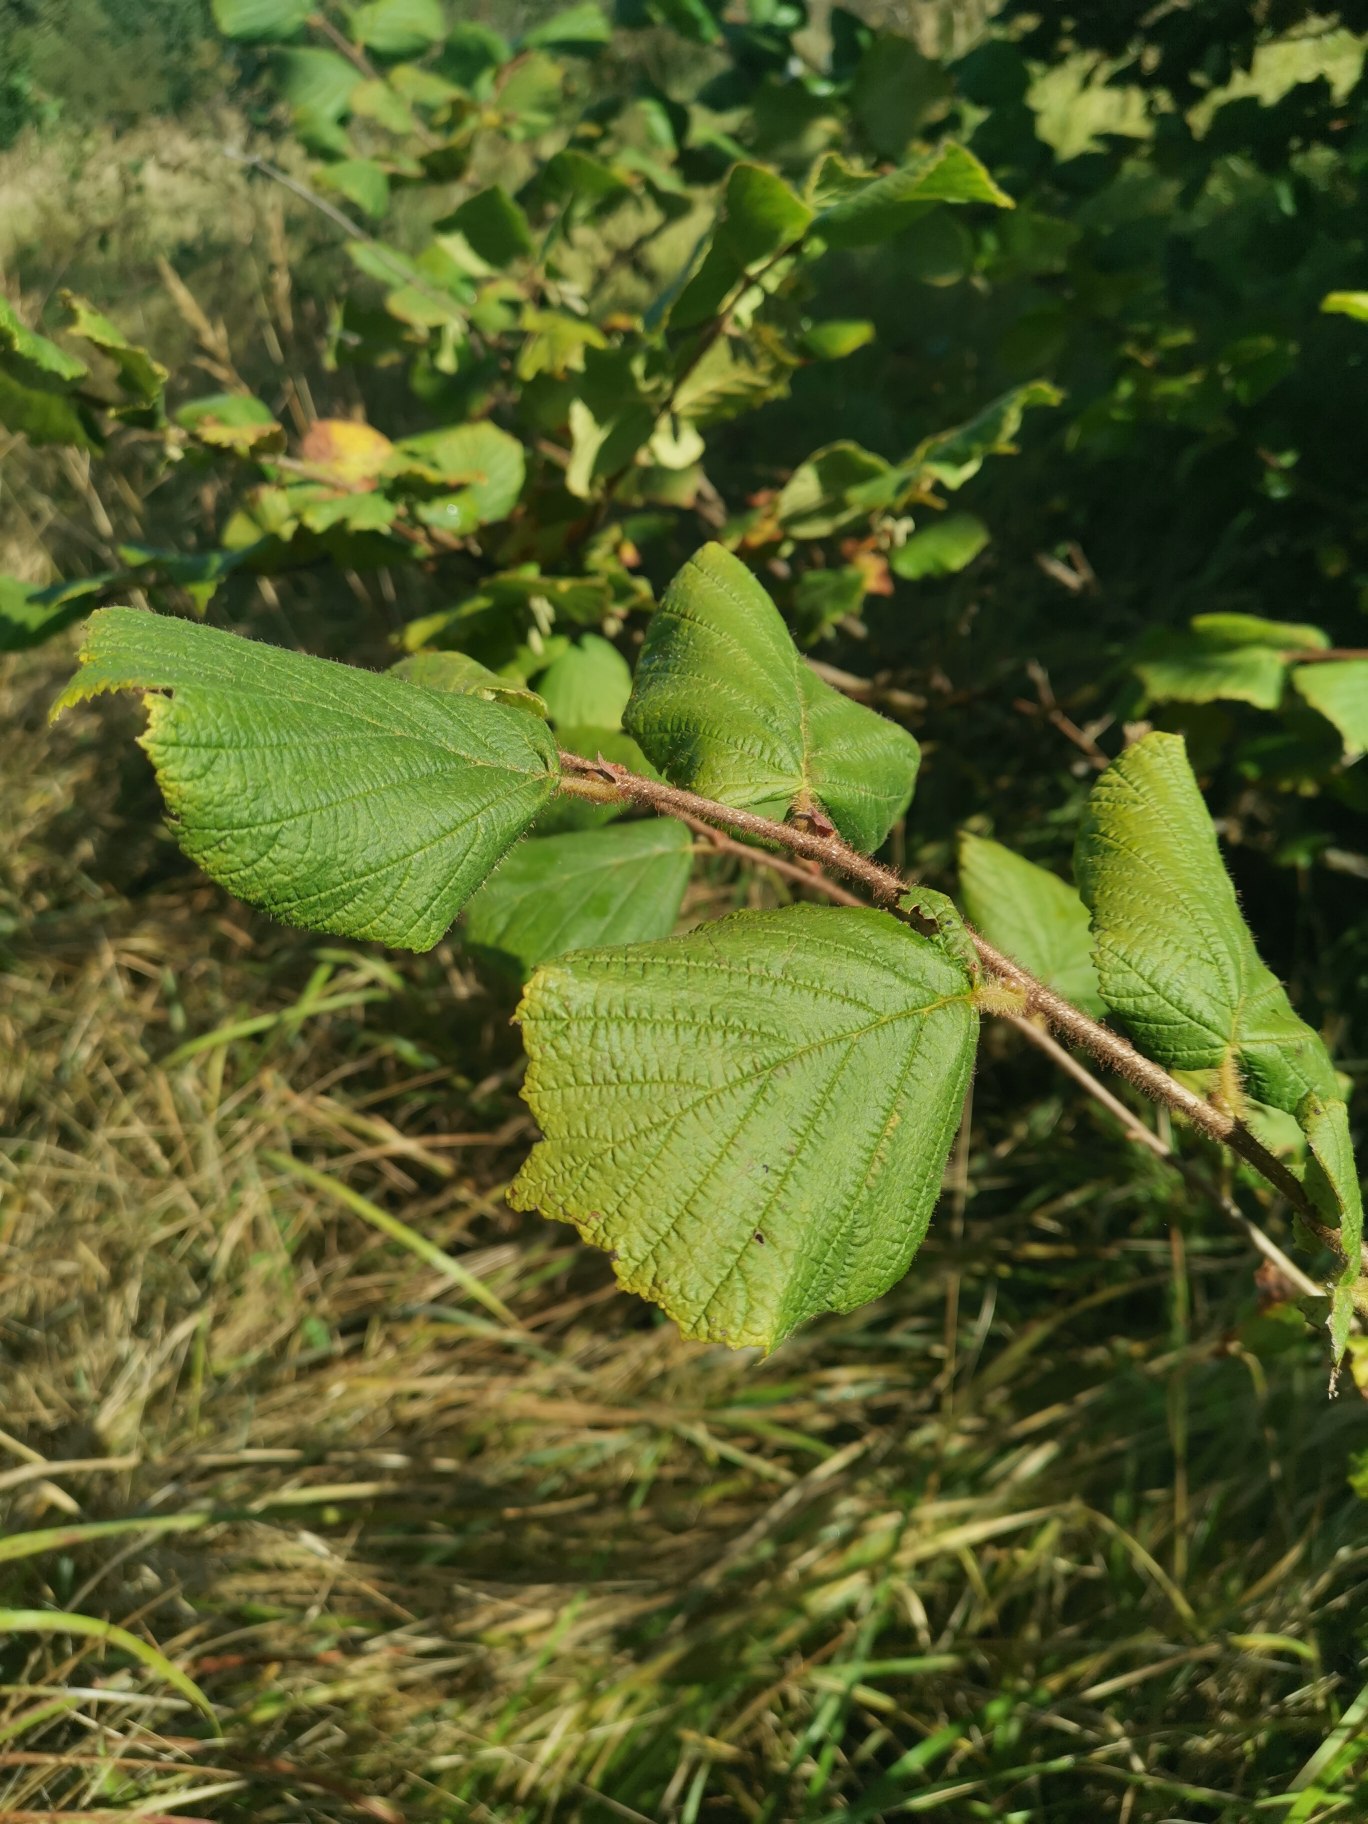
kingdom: Plantae
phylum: Tracheophyta
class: Magnoliopsida
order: Fagales
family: Betulaceae
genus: Corylus
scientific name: Corylus avellana
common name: Hassel
